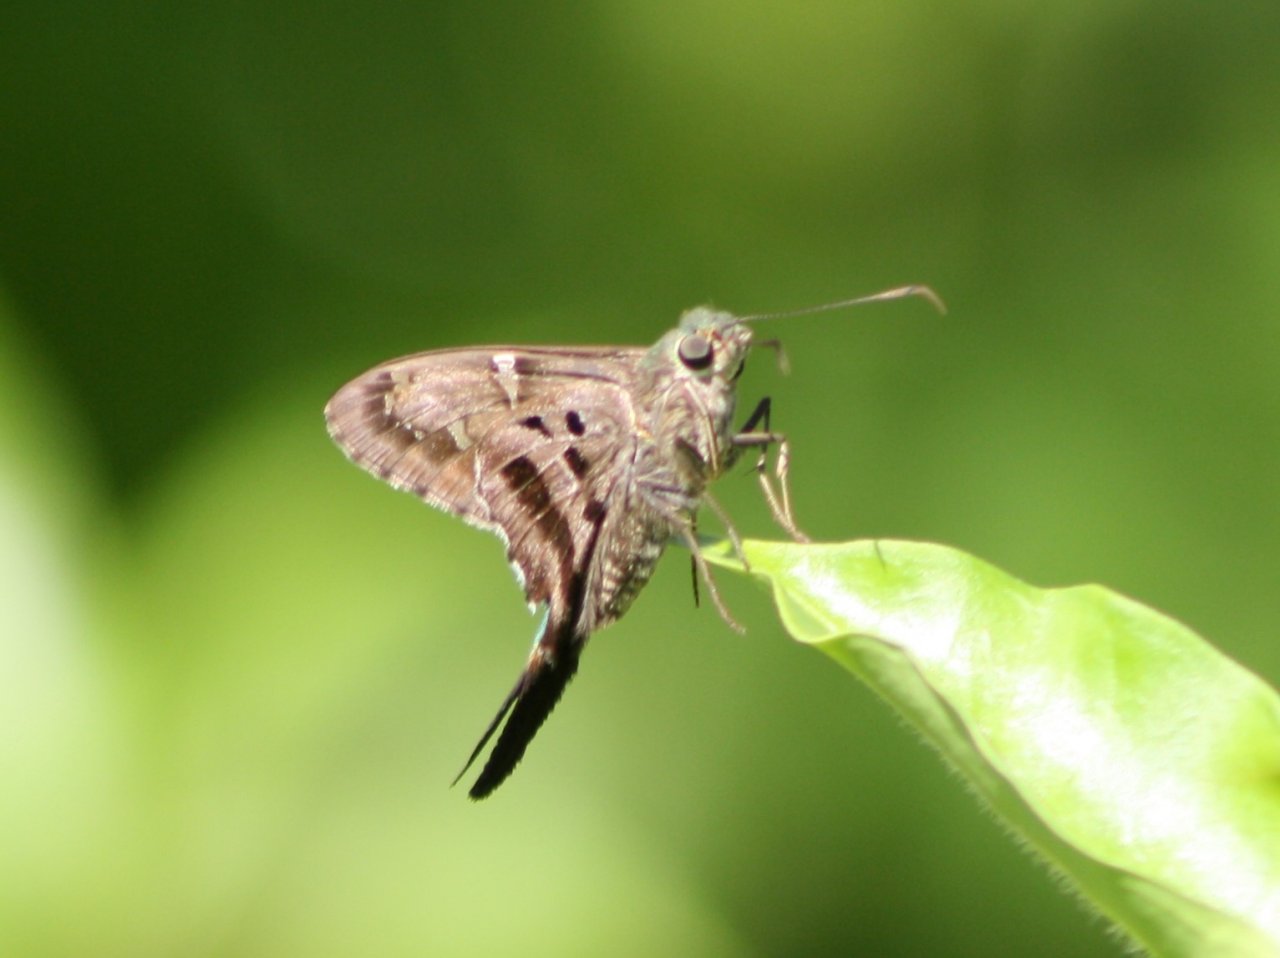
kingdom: Animalia
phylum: Arthropoda
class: Insecta
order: Lepidoptera
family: Hesperiidae
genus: Urbanus
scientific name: Urbanus proteus
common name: Long-tailed Skipper
